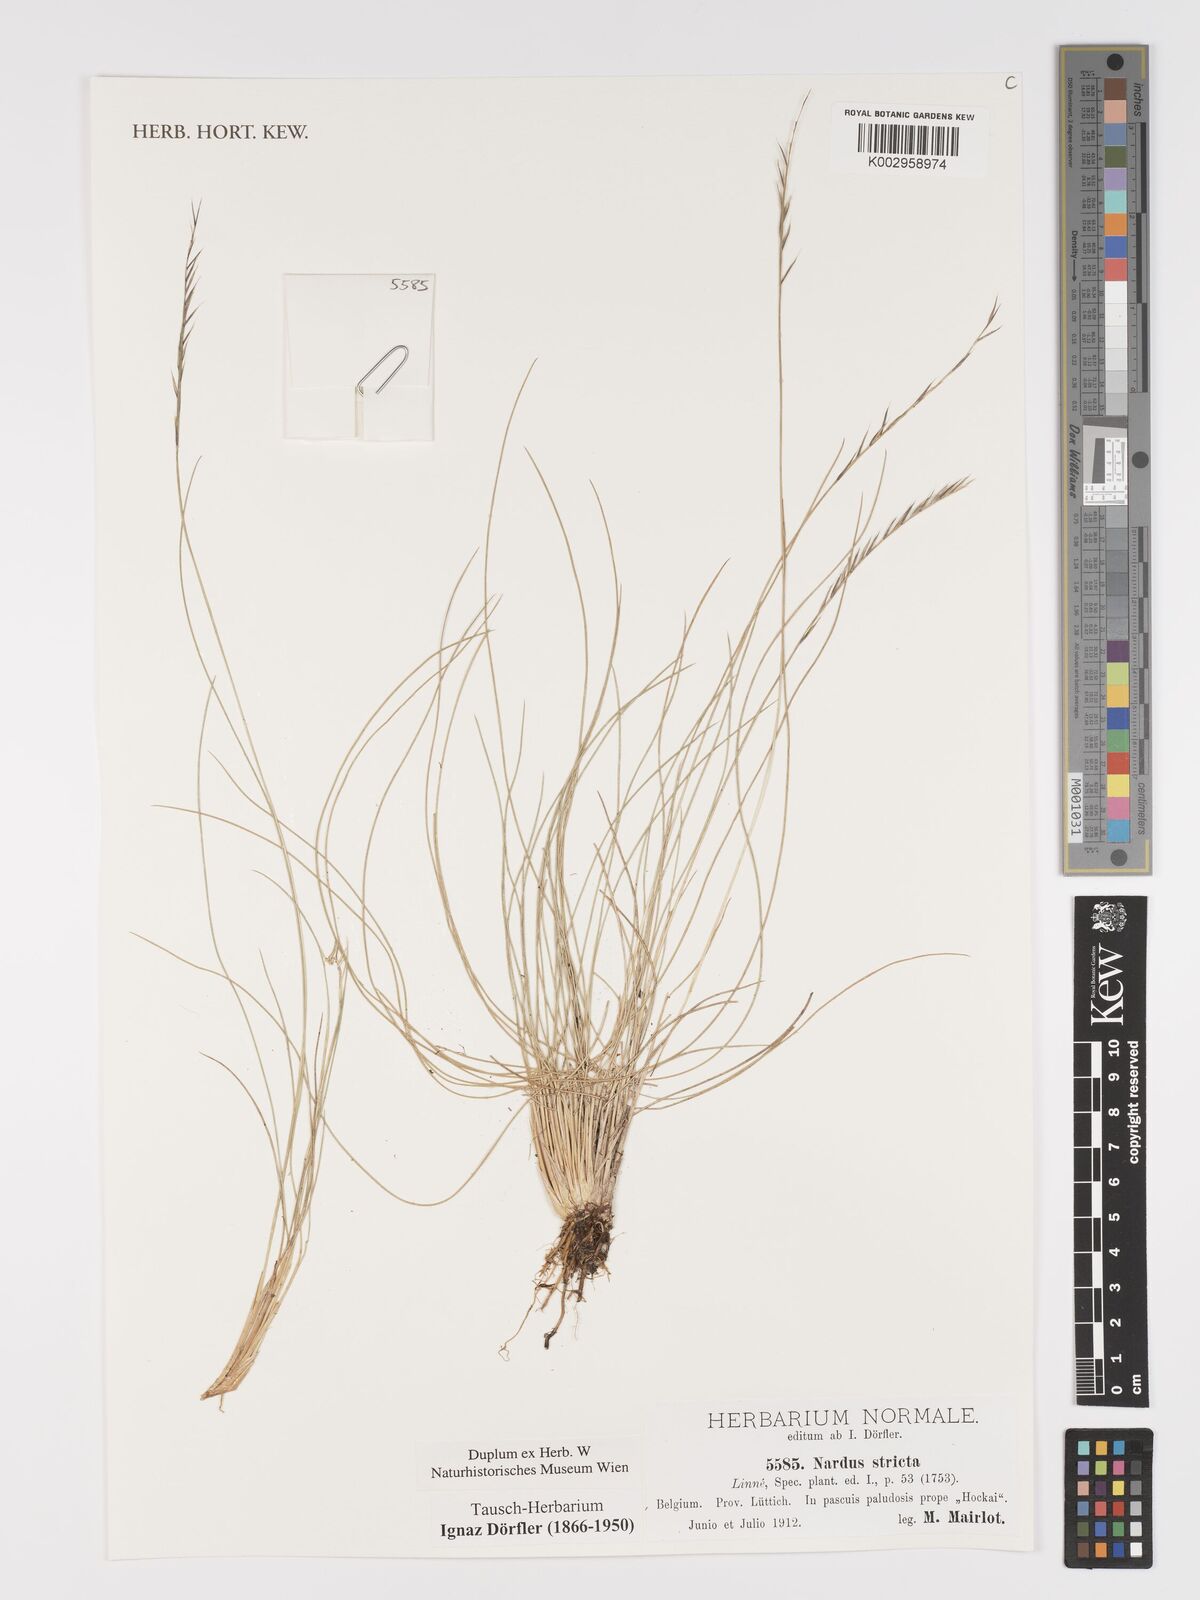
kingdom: Plantae
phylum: Tracheophyta
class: Liliopsida
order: Poales
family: Poaceae
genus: Nardus
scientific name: Nardus stricta
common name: Mat-grass
